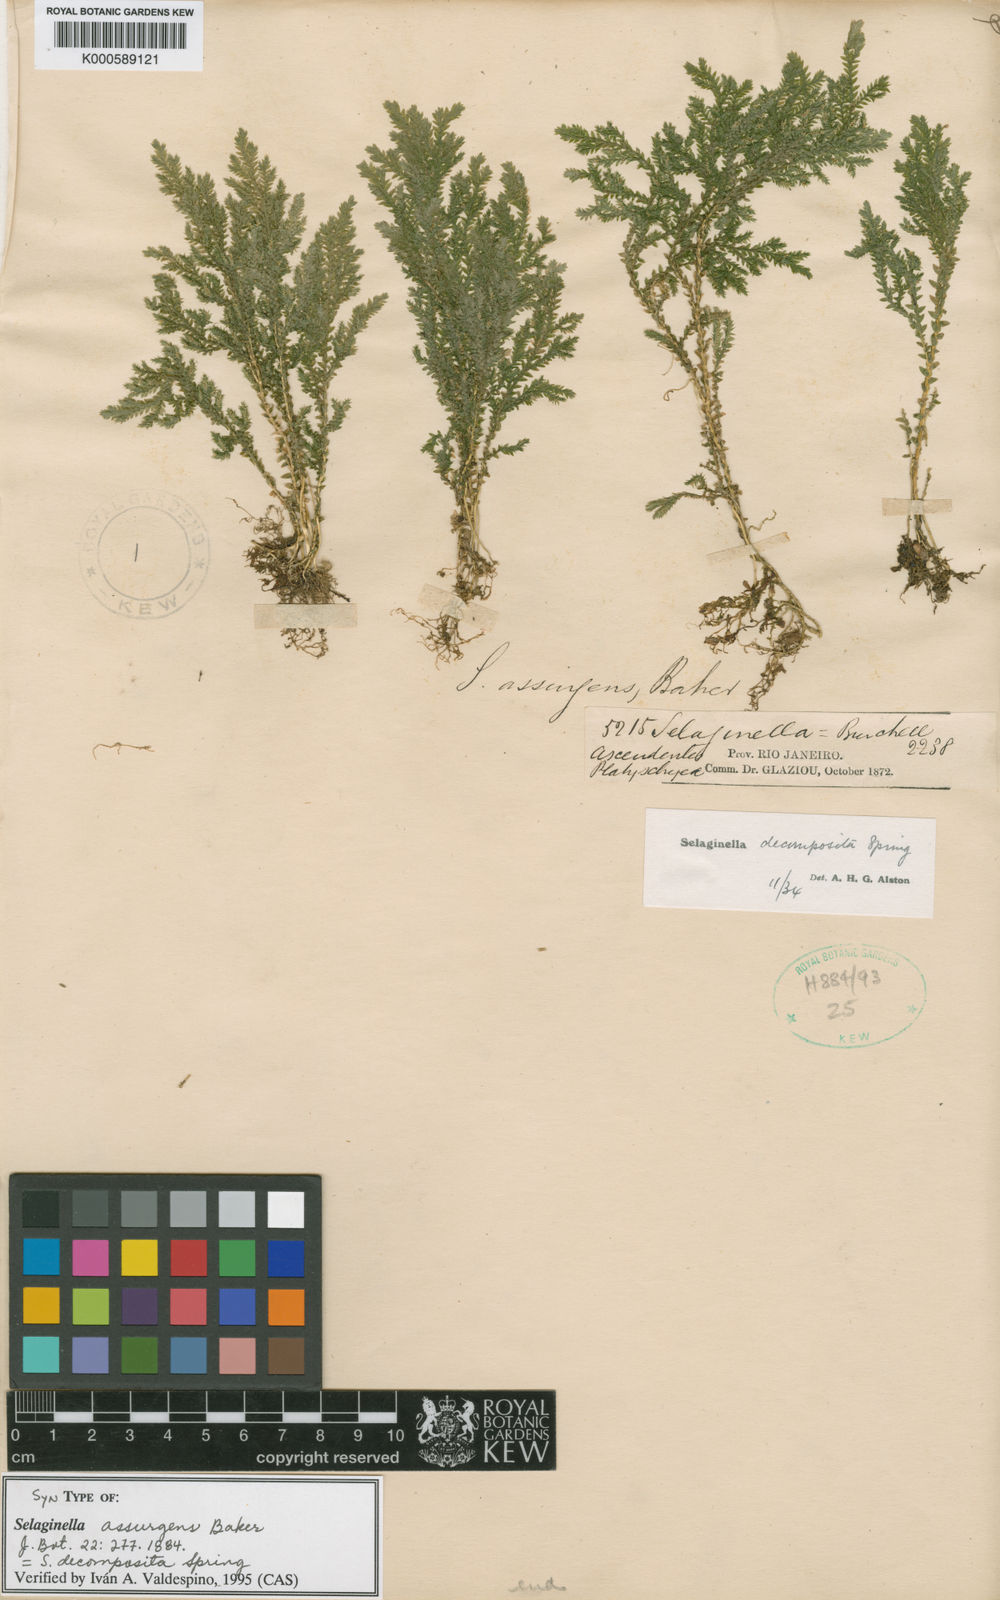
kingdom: Plantae
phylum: Tracheophyta
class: Lycopodiopsida
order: Selaginellales
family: Selaginellaceae
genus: Selaginella
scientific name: Selaginella decomposita
